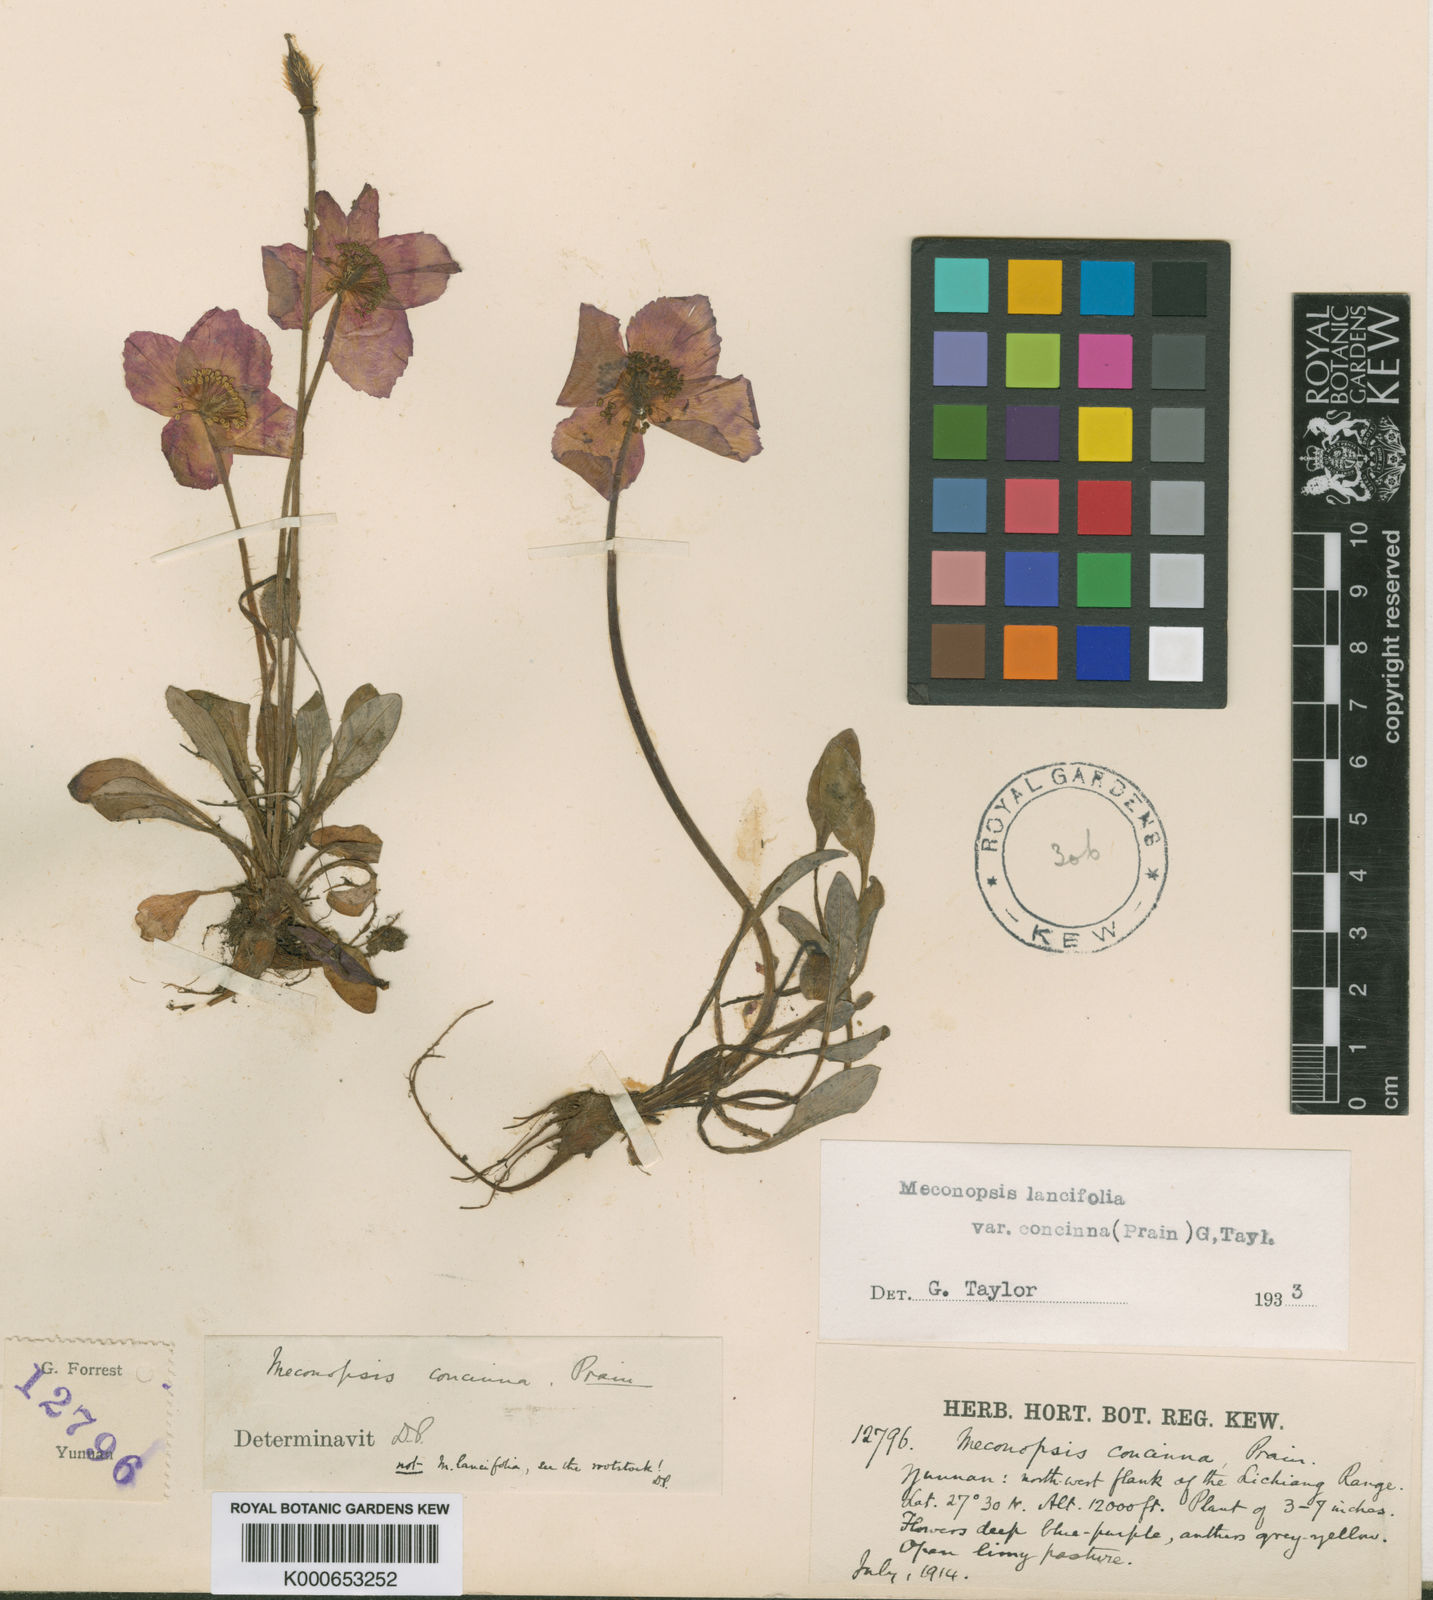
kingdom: Plantae
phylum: Tracheophyta
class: Magnoliopsida
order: Ranunculales
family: Papaveraceae
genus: Meconopsis
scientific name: Meconopsis lancifolia
